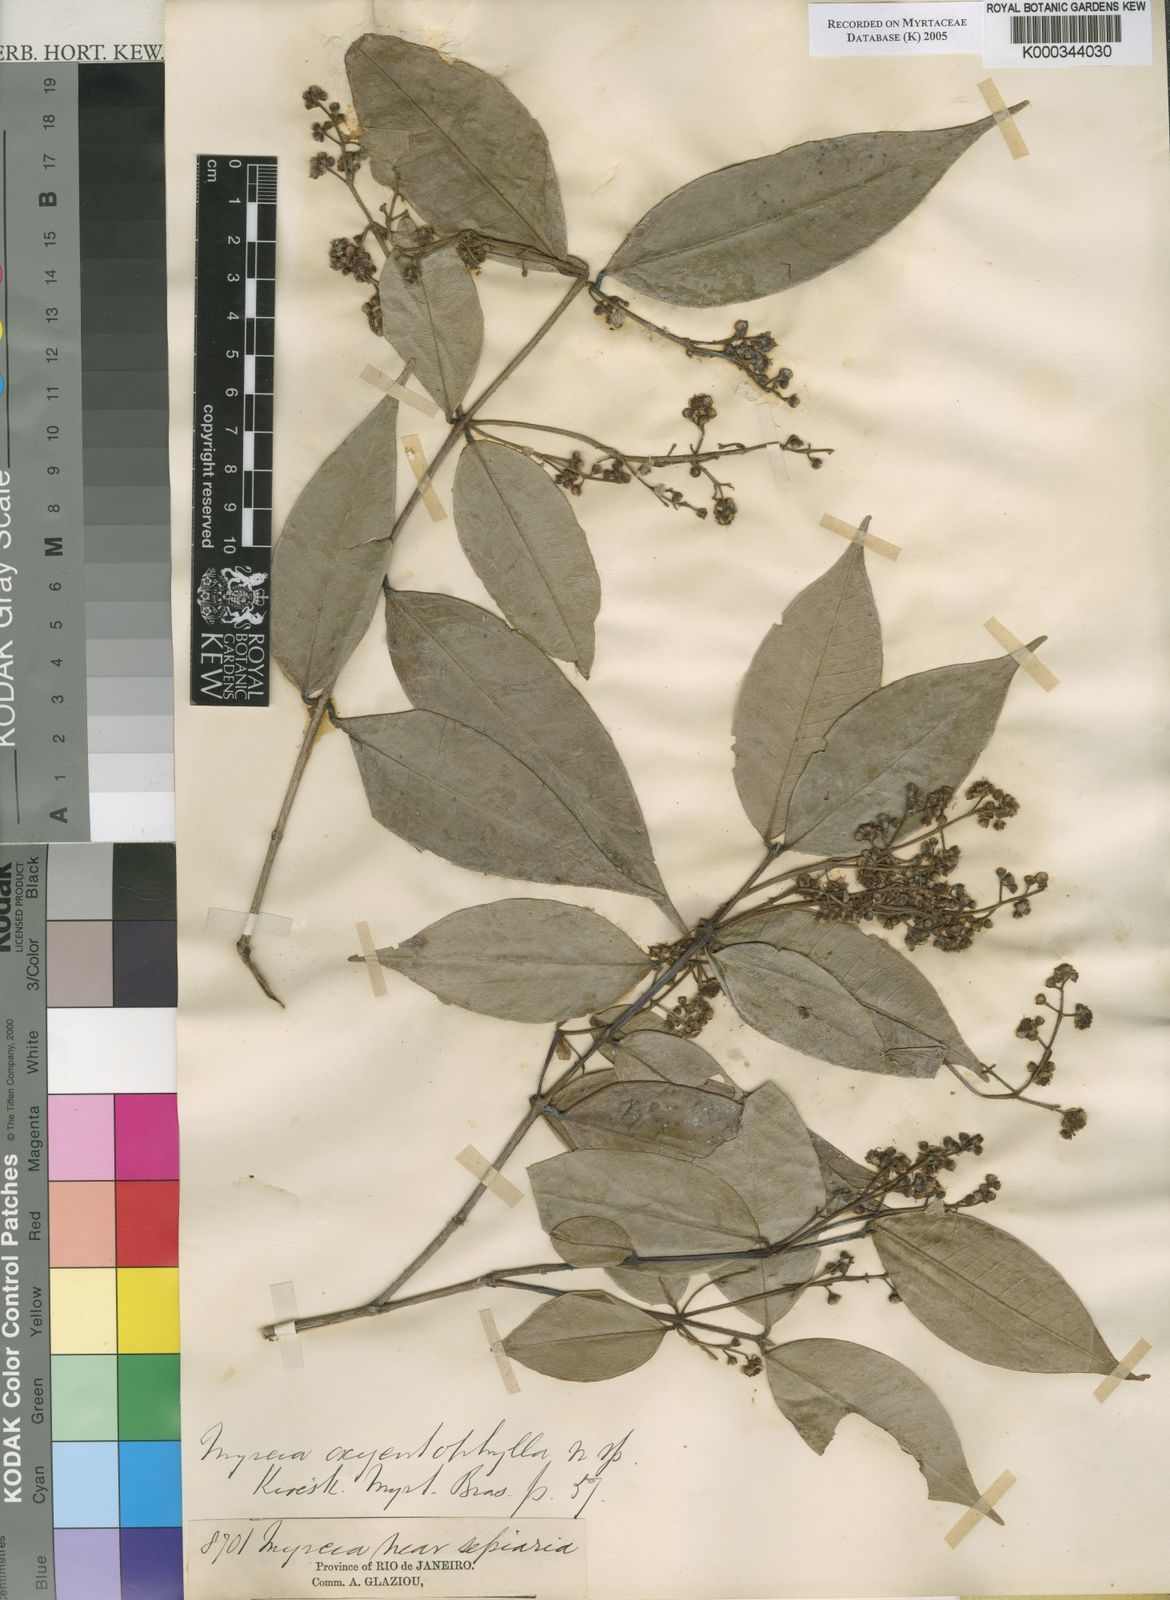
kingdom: Plantae
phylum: Tracheophyta
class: Magnoliopsida
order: Myrtales
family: Myrtaceae
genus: Myrcia
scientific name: Myrcia splendens
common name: Surinam cherry
